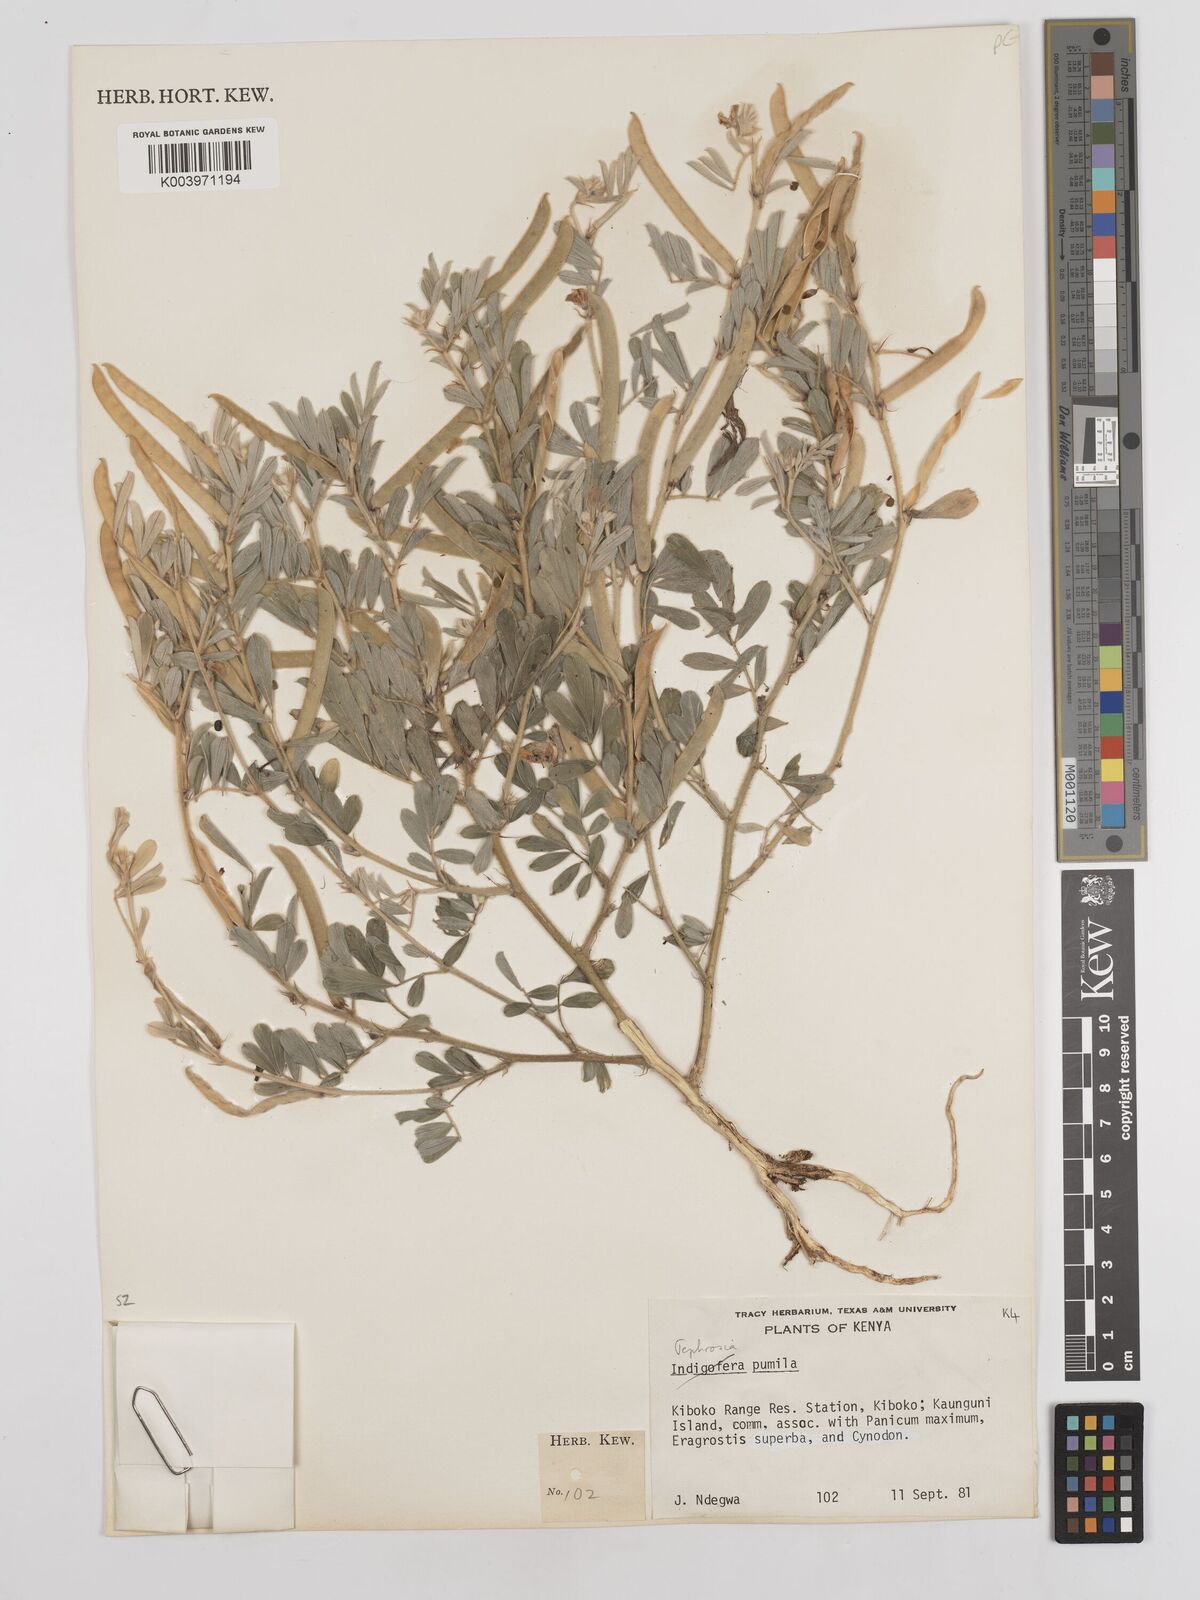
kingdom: Plantae
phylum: Tracheophyta
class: Magnoliopsida
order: Fabales
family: Fabaceae
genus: Tephrosia
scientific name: Tephrosia pumila
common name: Indigo sauvage
